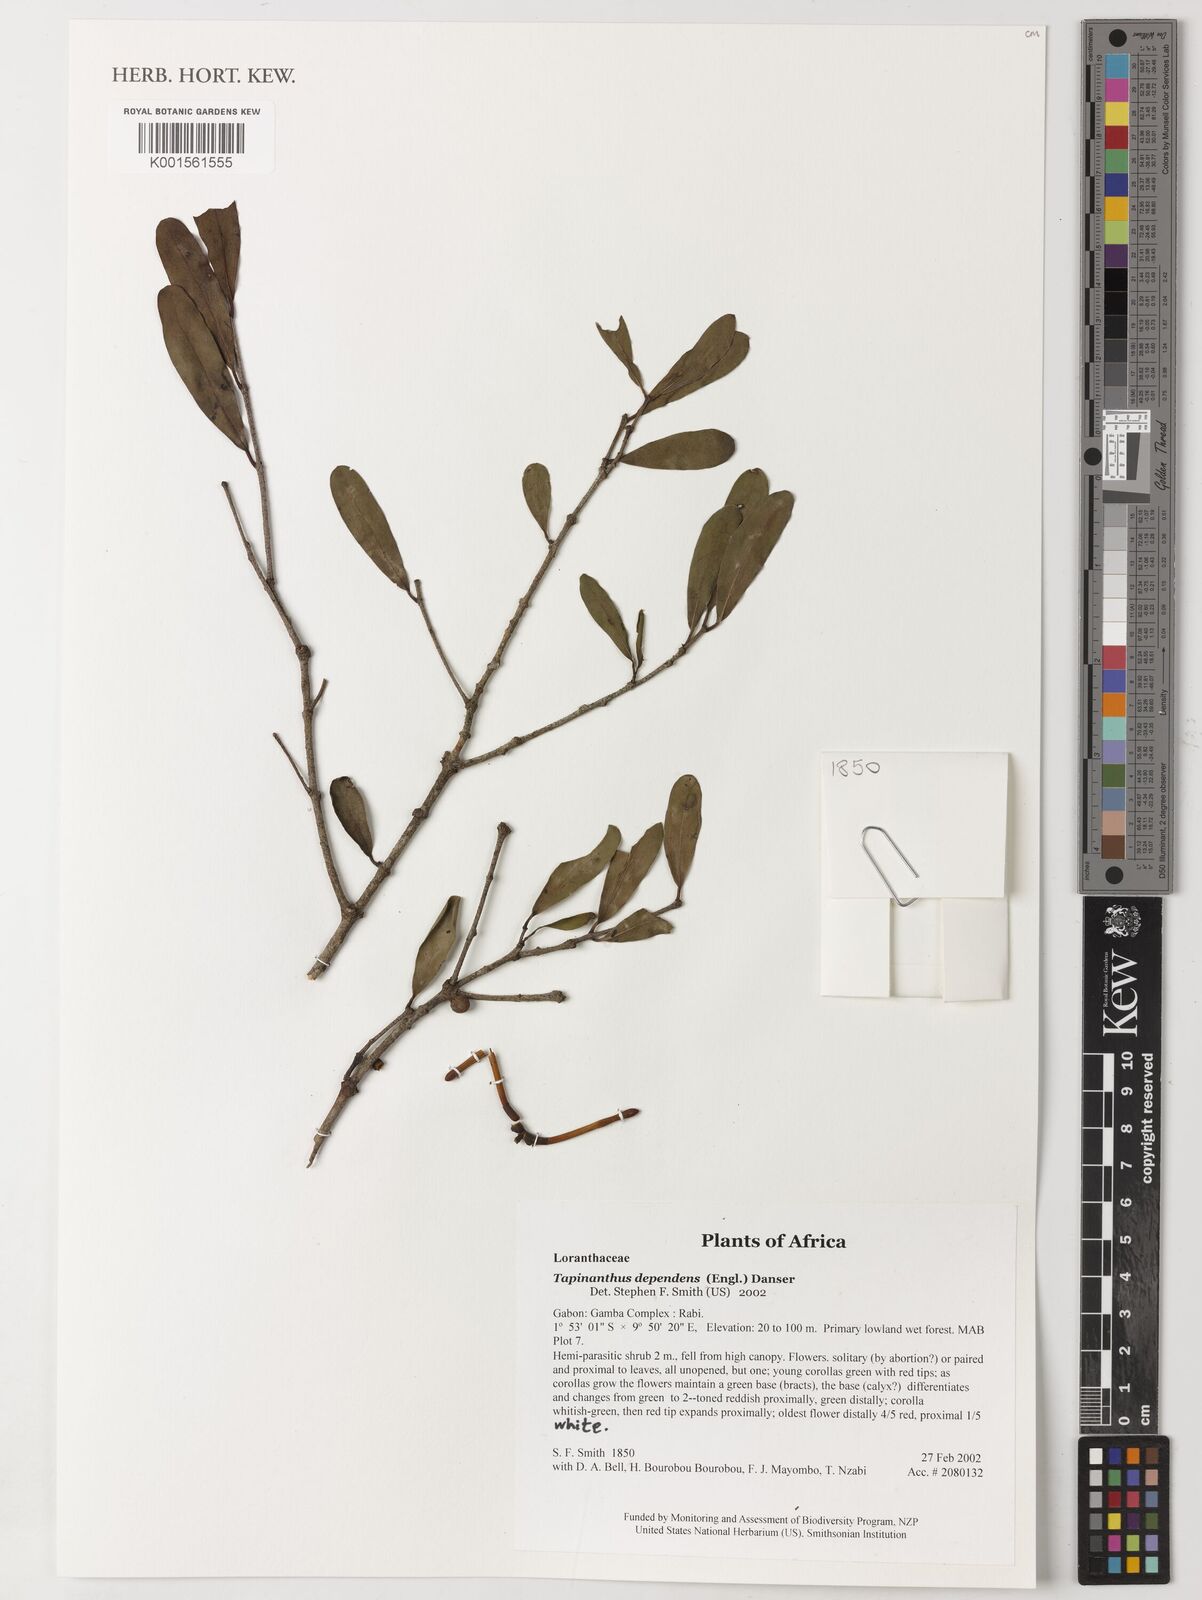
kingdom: Plantae
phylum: Tracheophyta
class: Magnoliopsida
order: Santalales
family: Loranthaceae
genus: Tapinanthus
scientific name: Tapinanthus dependens
